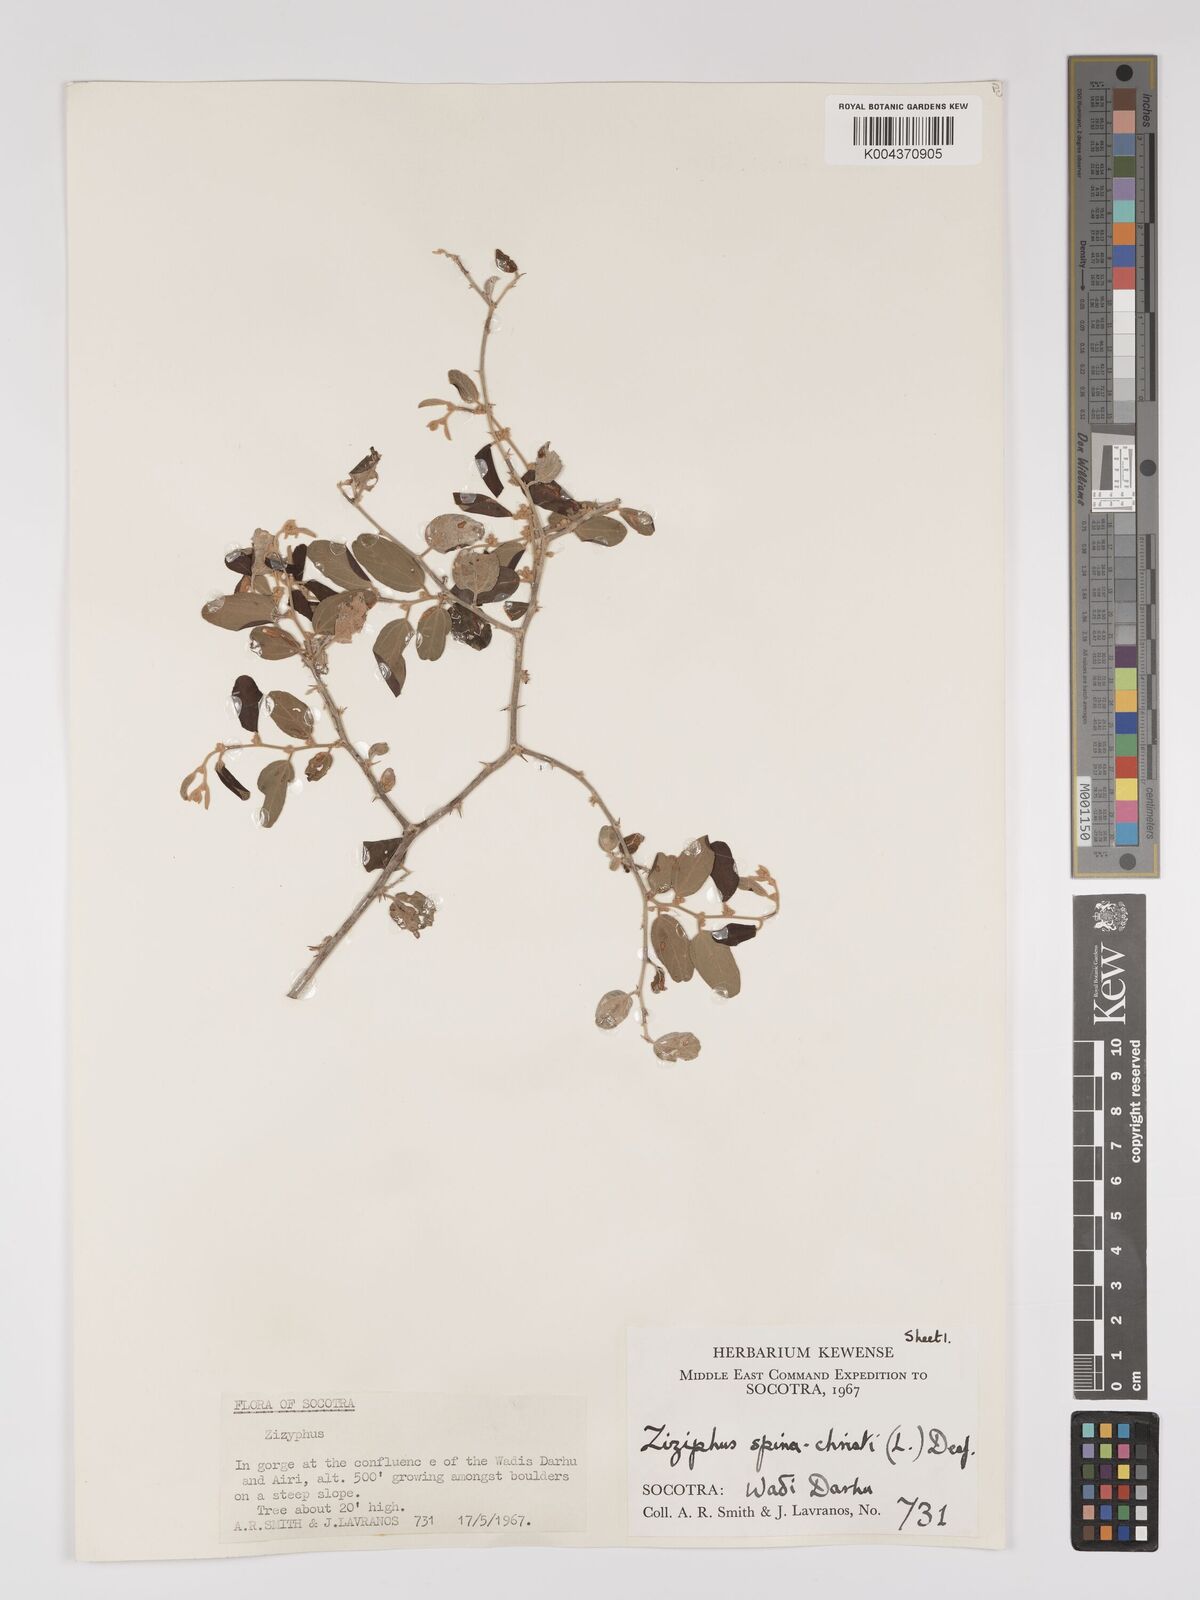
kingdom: Plantae
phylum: Tracheophyta
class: Magnoliopsida
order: Rosales
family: Rhamnaceae
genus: Ziziphus
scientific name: Ziziphus spina-christi
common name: Syrian christ-thorn
